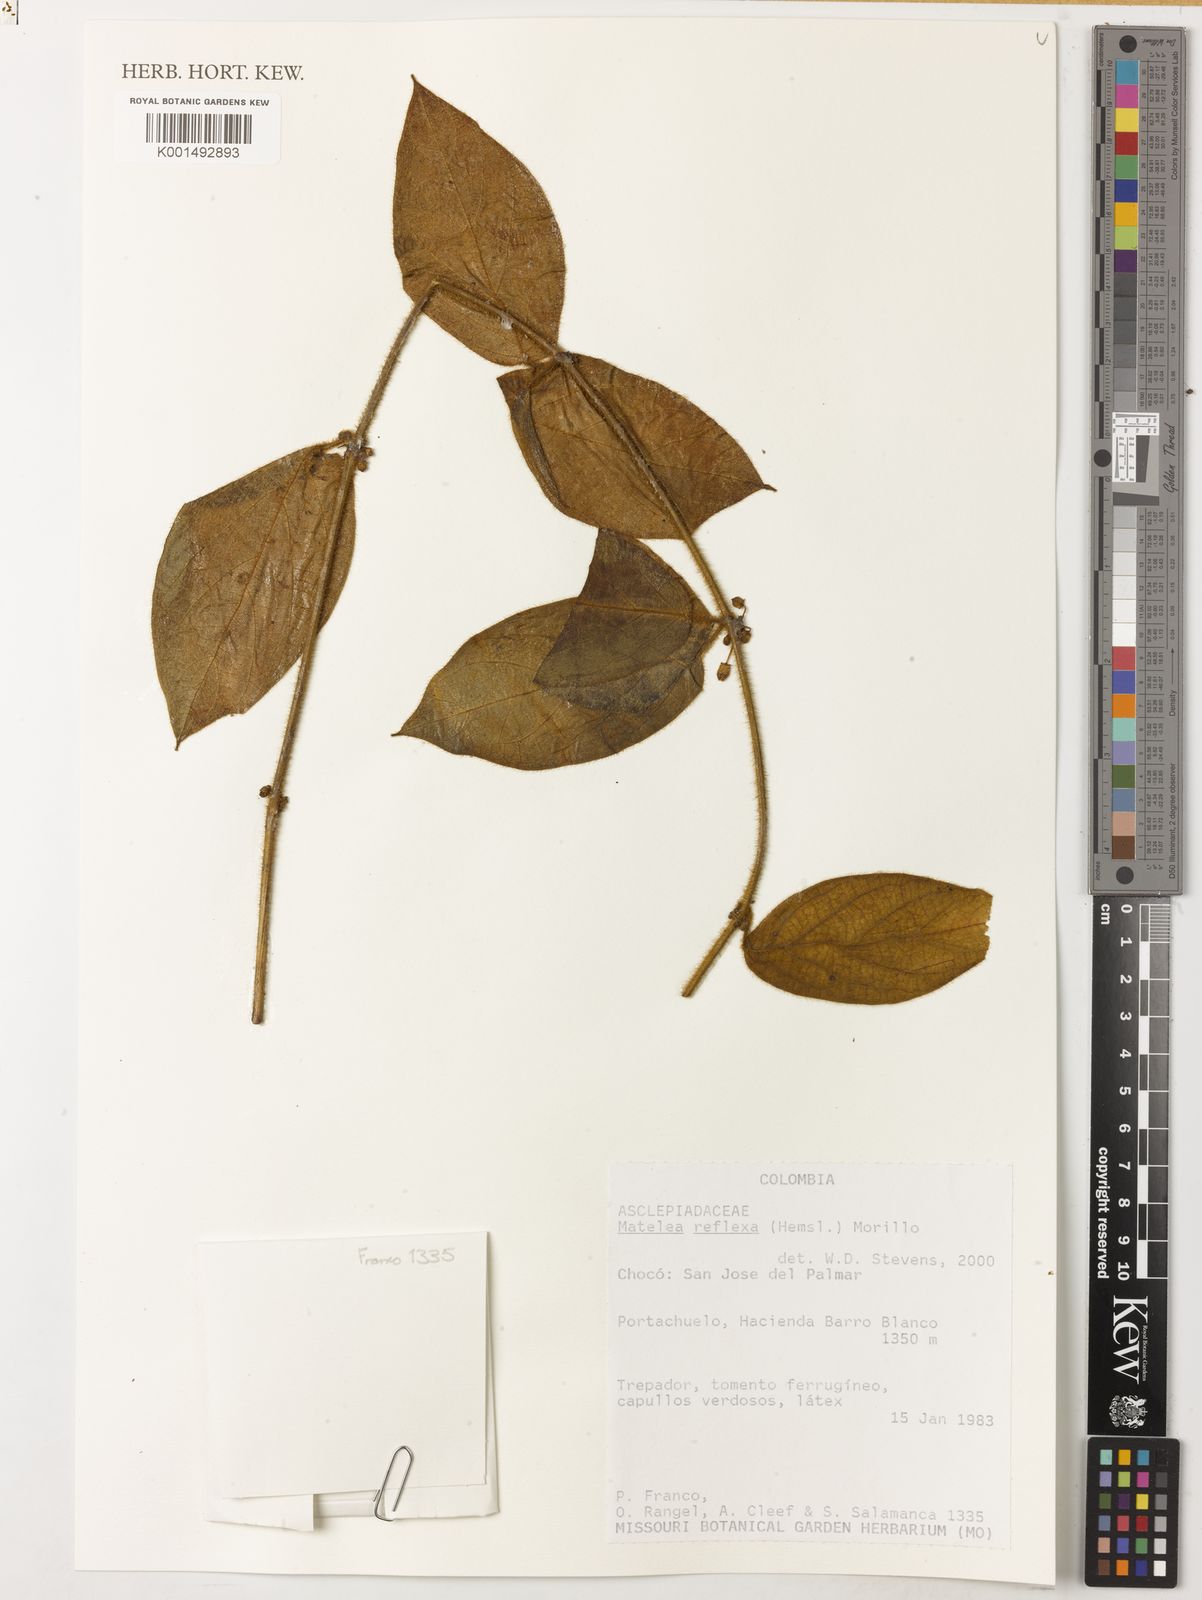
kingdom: Plantae
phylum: Tracheophyta
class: Magnoliopsida
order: Gentianales
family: Apocynaceae
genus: Pseudolachnostoma
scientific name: Pseudolachnostoma reflexum
